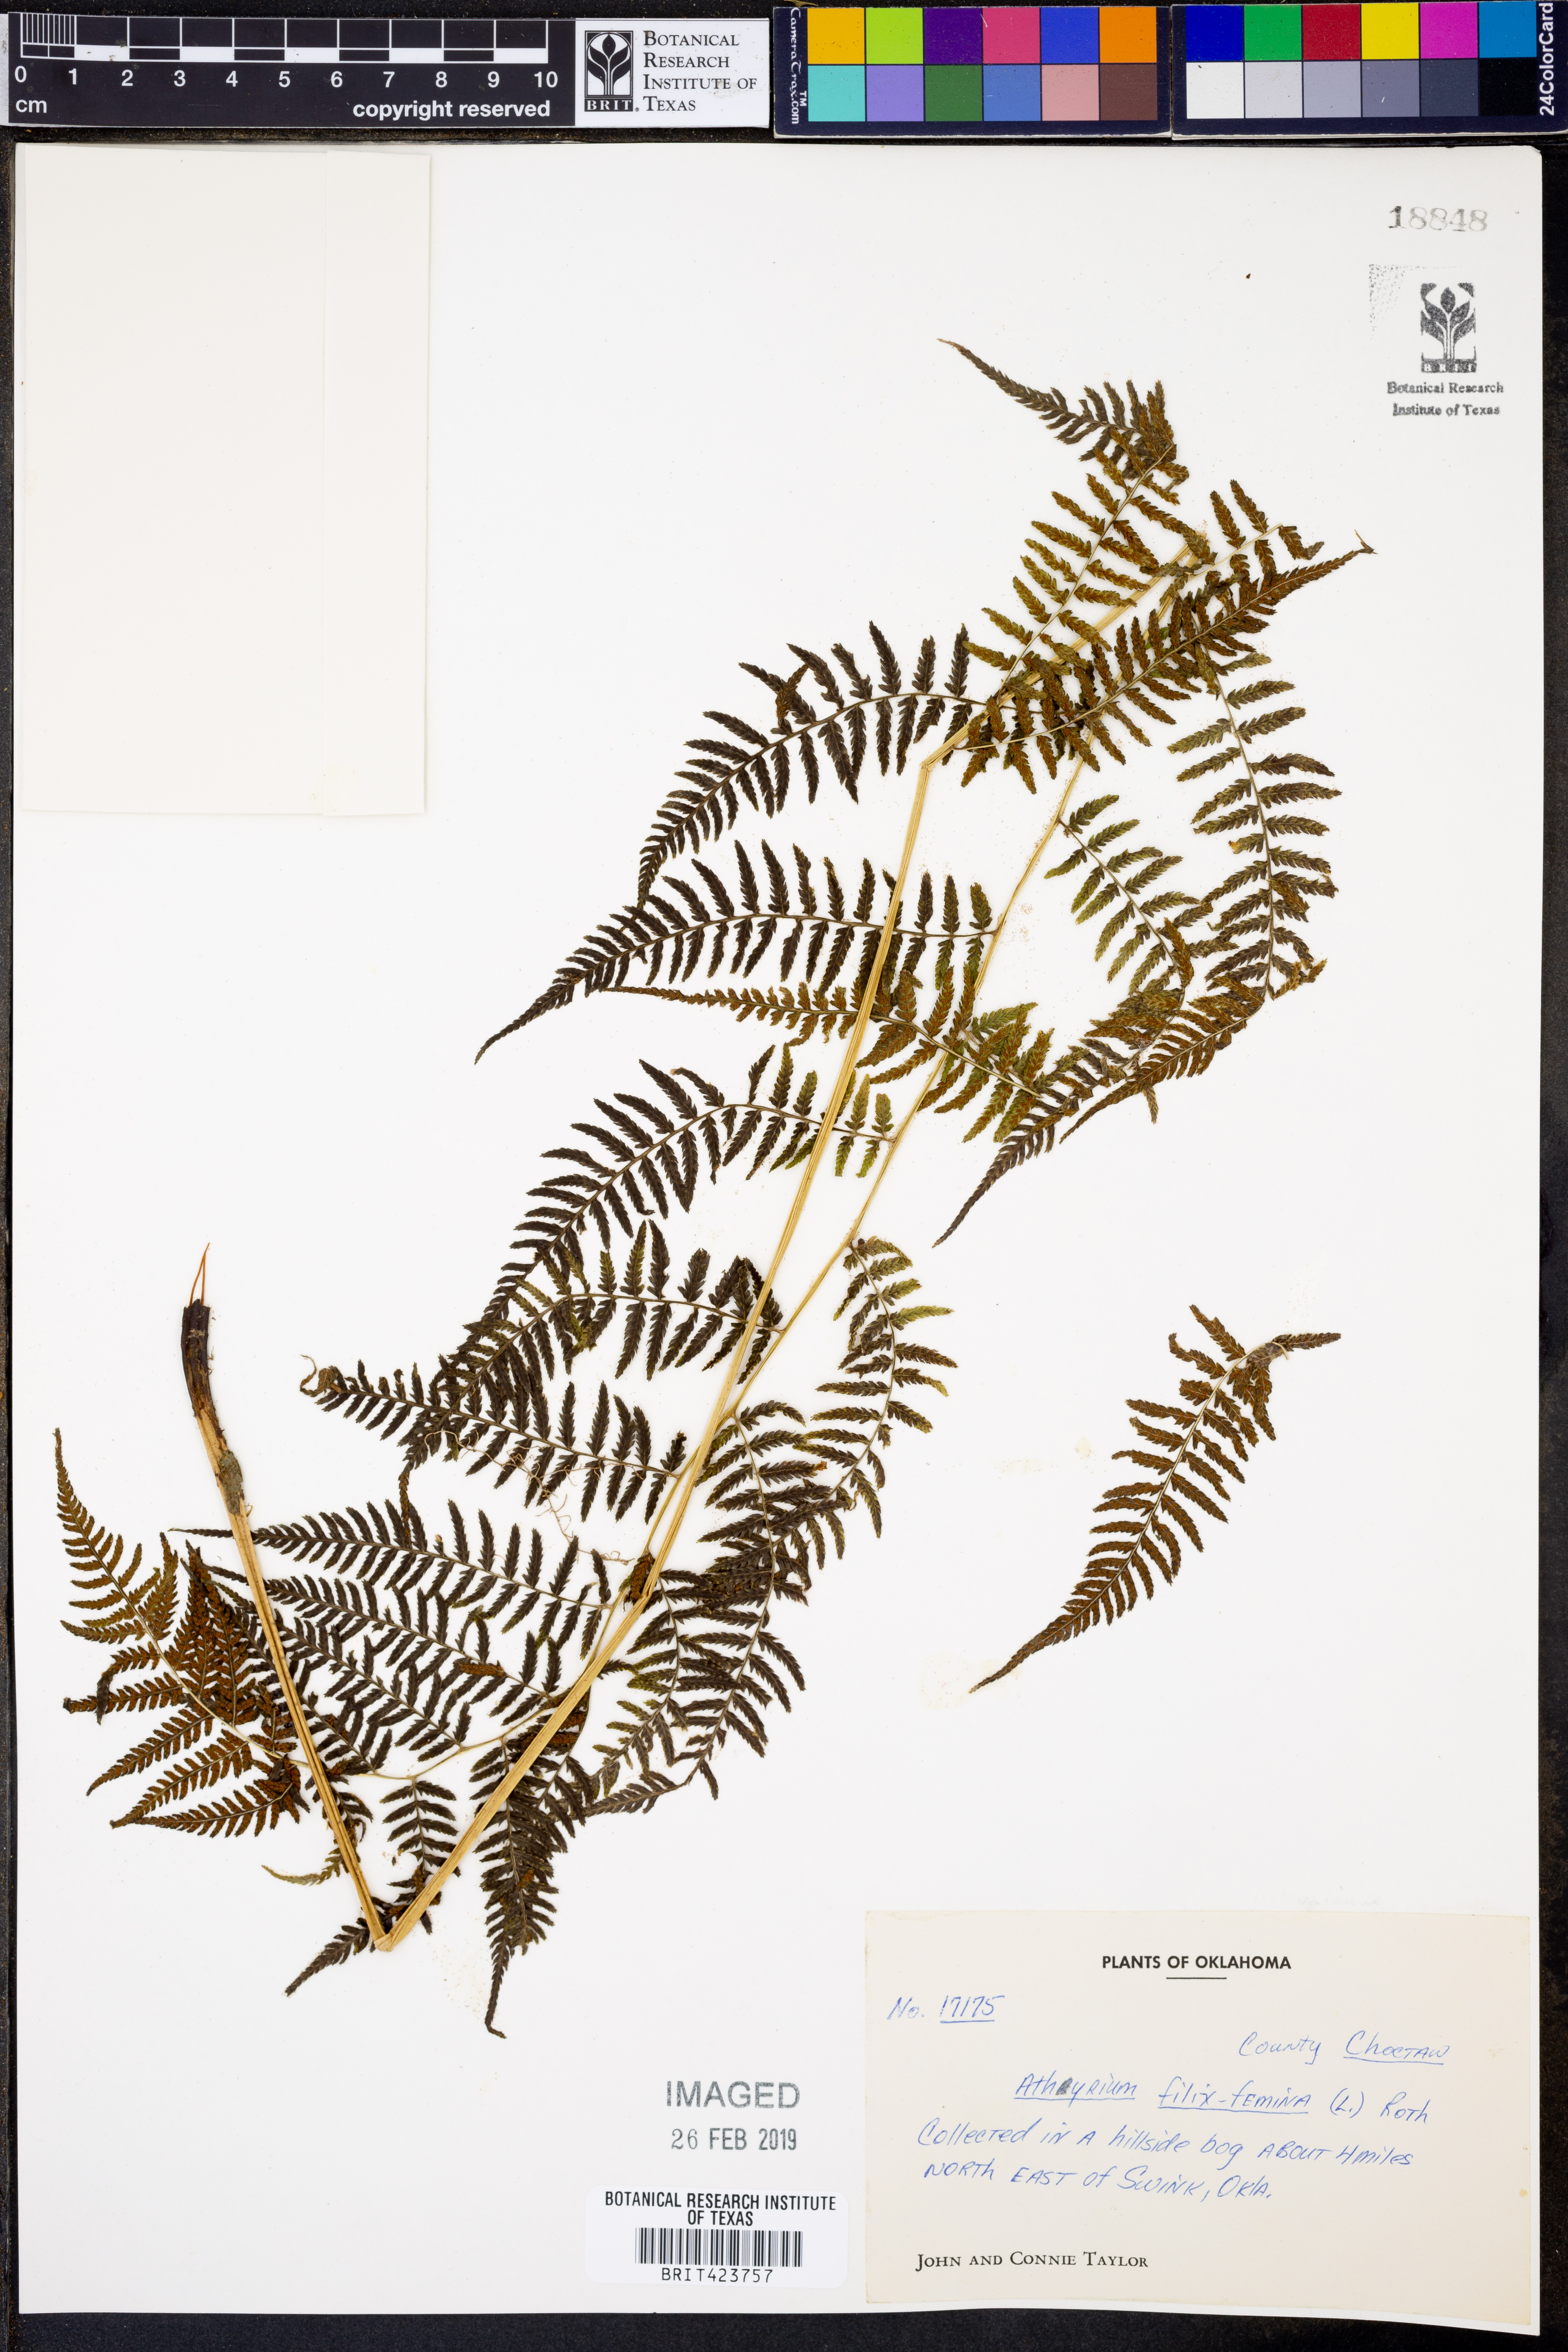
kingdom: Plantae
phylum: Tracheophyta
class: Polypodiopsida
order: Polypodiales
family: Athyriaceae
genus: Athyrium
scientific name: Athyrium filix-femina
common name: Lady fern
